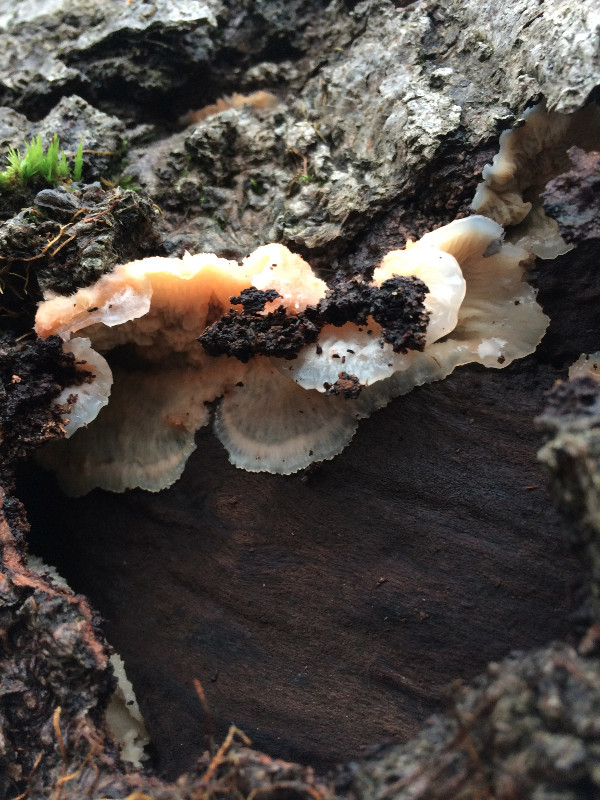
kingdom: Fungi
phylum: Basidiomycota
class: Agaricomycetes
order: Polyporales
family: Meruliaceae
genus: Phlebia
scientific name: Phlebia tremellosa
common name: bævrende åresvamp
